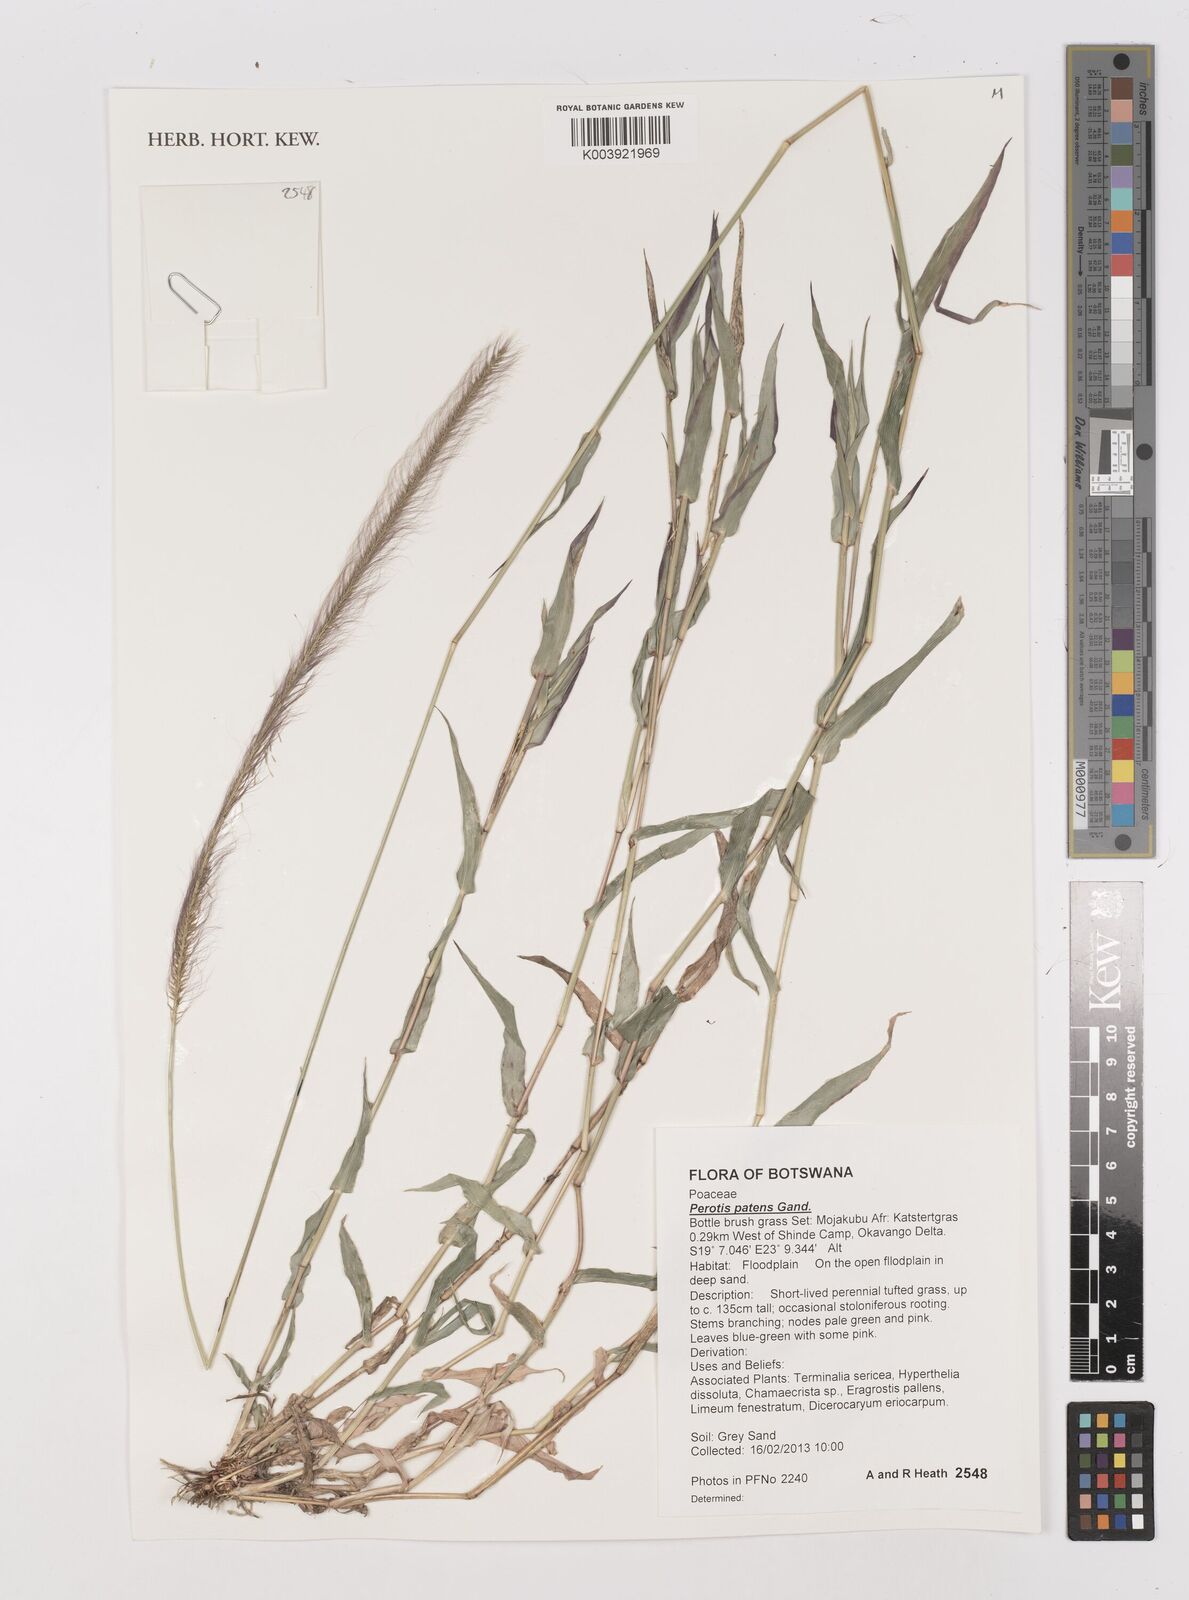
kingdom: Plantae
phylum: Tracheophyta
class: Liliopsida
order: Poales
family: Poaceae
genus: Perotis
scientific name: Perotis patens
